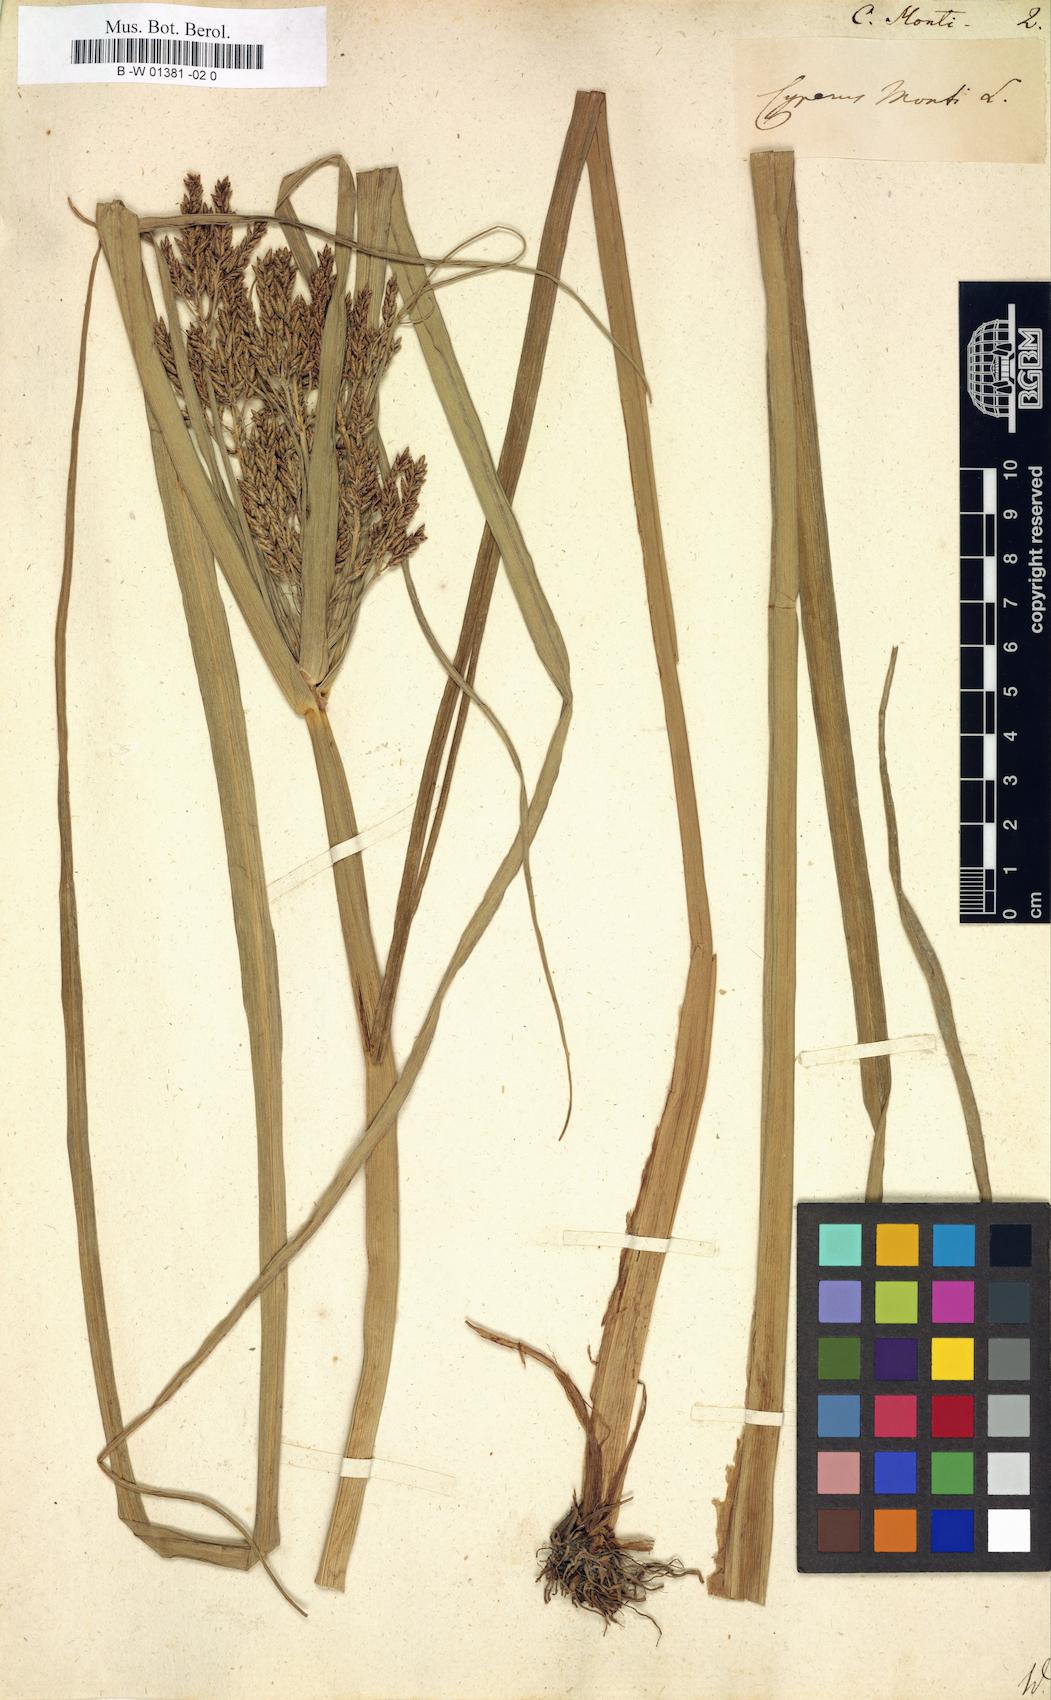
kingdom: Plantae
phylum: Tracheophyta
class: Liliopsida
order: Poales
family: Cyperaceae
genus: Cyperus
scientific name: Cyperus serotinus
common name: Tidalmarsh flatsedge
